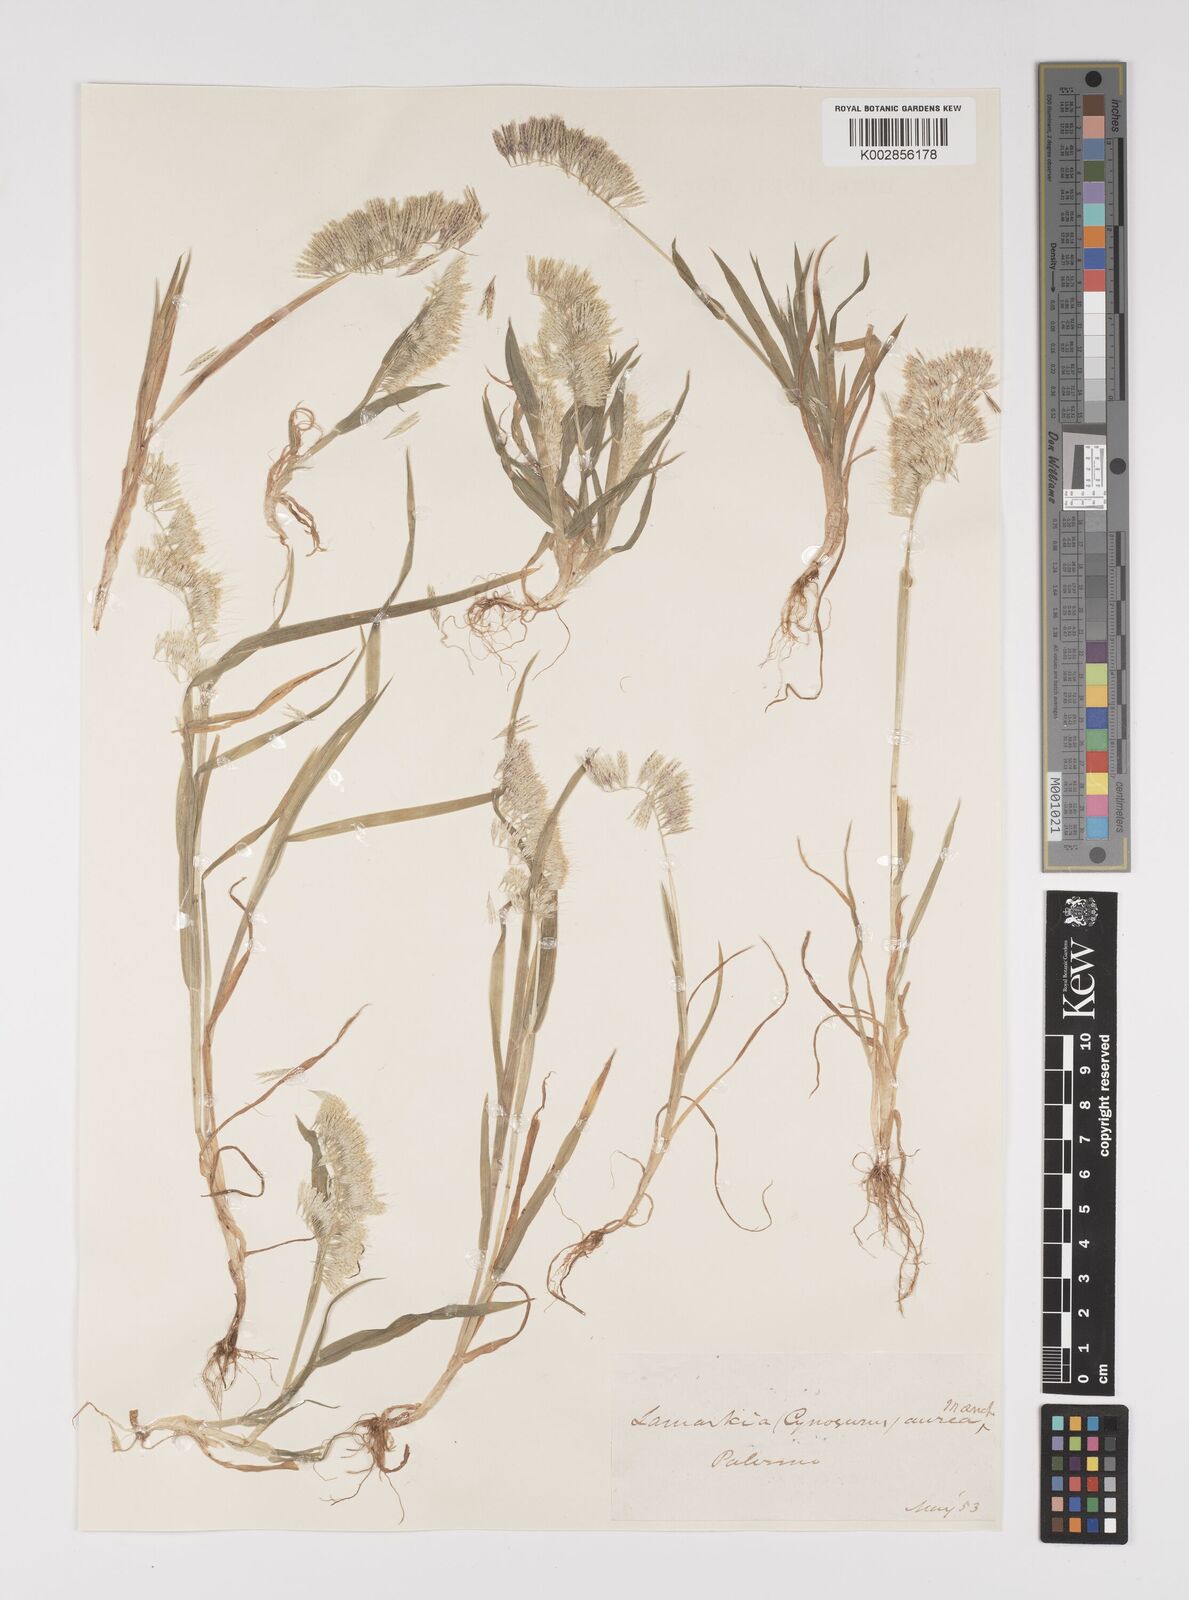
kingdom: Plantae
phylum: Tracheophyta
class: Liliopsida
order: Poales
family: Poaceae
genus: Lamarckia
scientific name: Lamarckia aurea
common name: Golden dog's-tail
